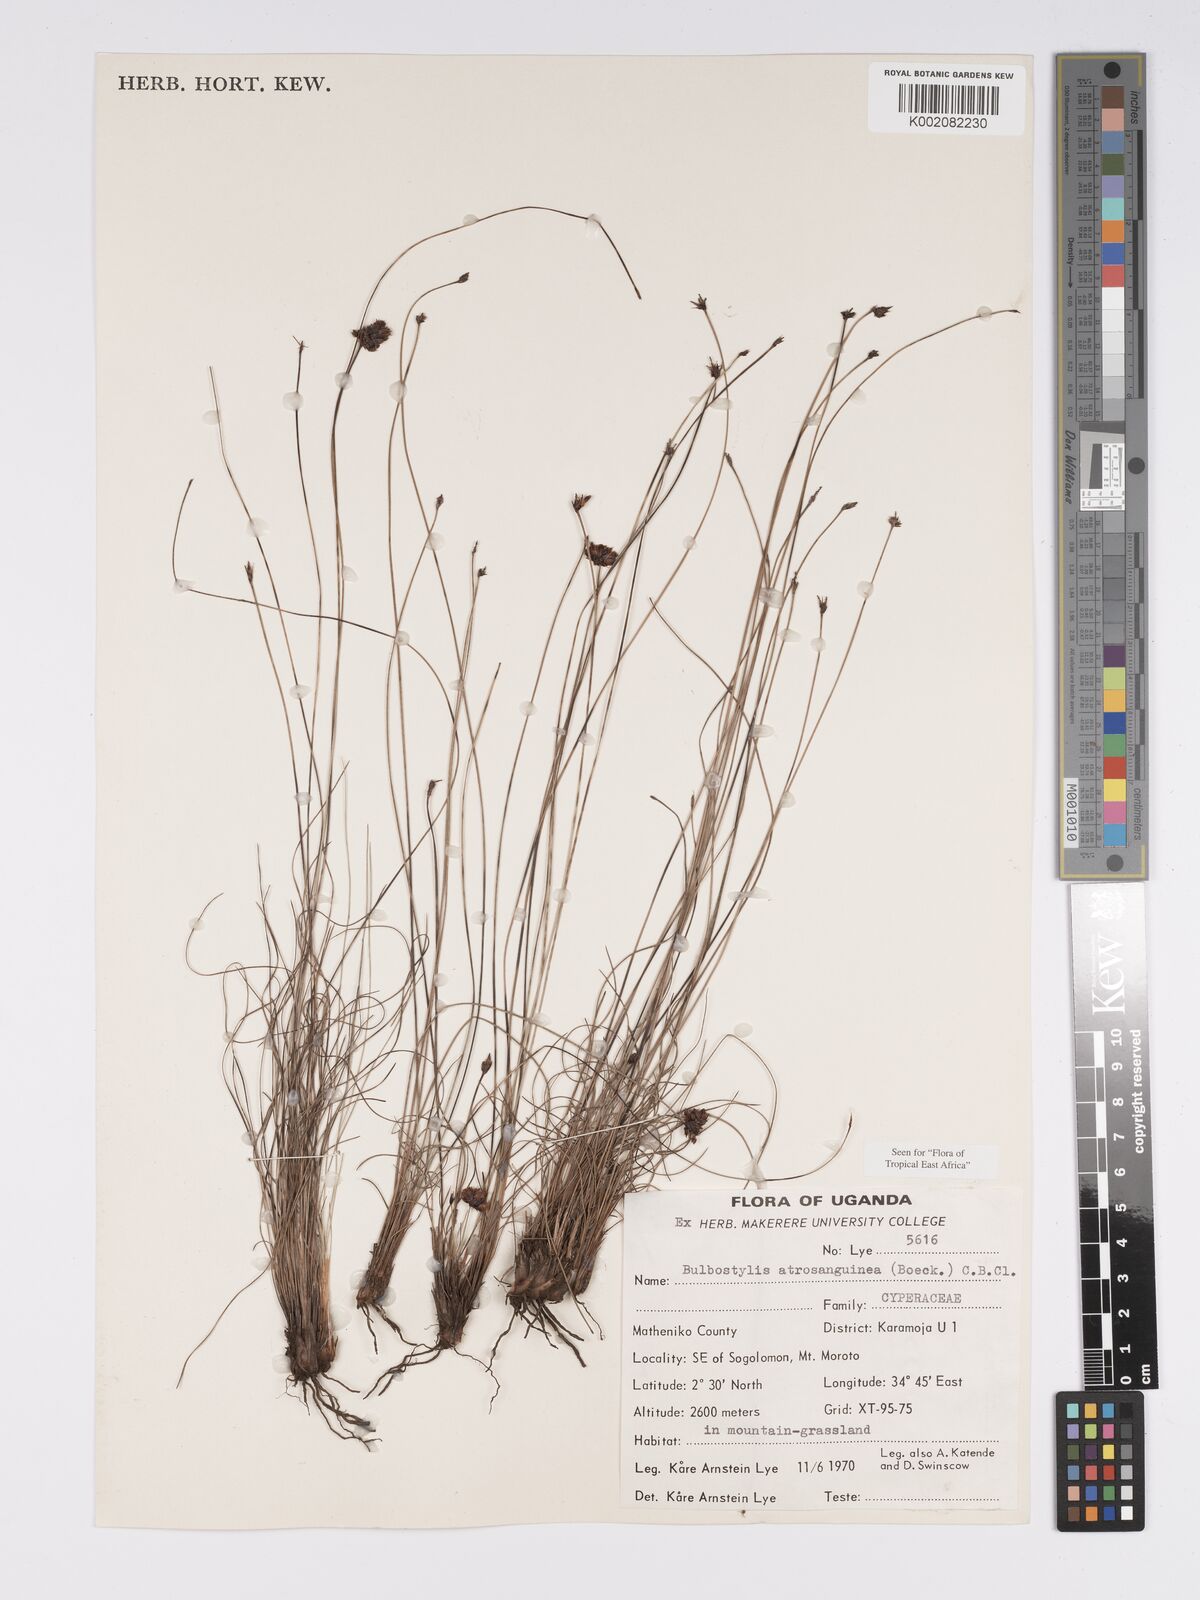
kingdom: Plantae
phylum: Tracheophyta
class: Liliopsida
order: Poales
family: Cyperaceae
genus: Bulbostylis
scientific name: Bulbostylis atrosanguinea
